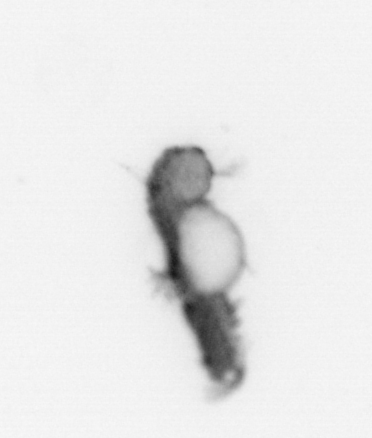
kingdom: Animalia
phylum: Annelida
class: Polychaeta
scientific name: Polychaeta
